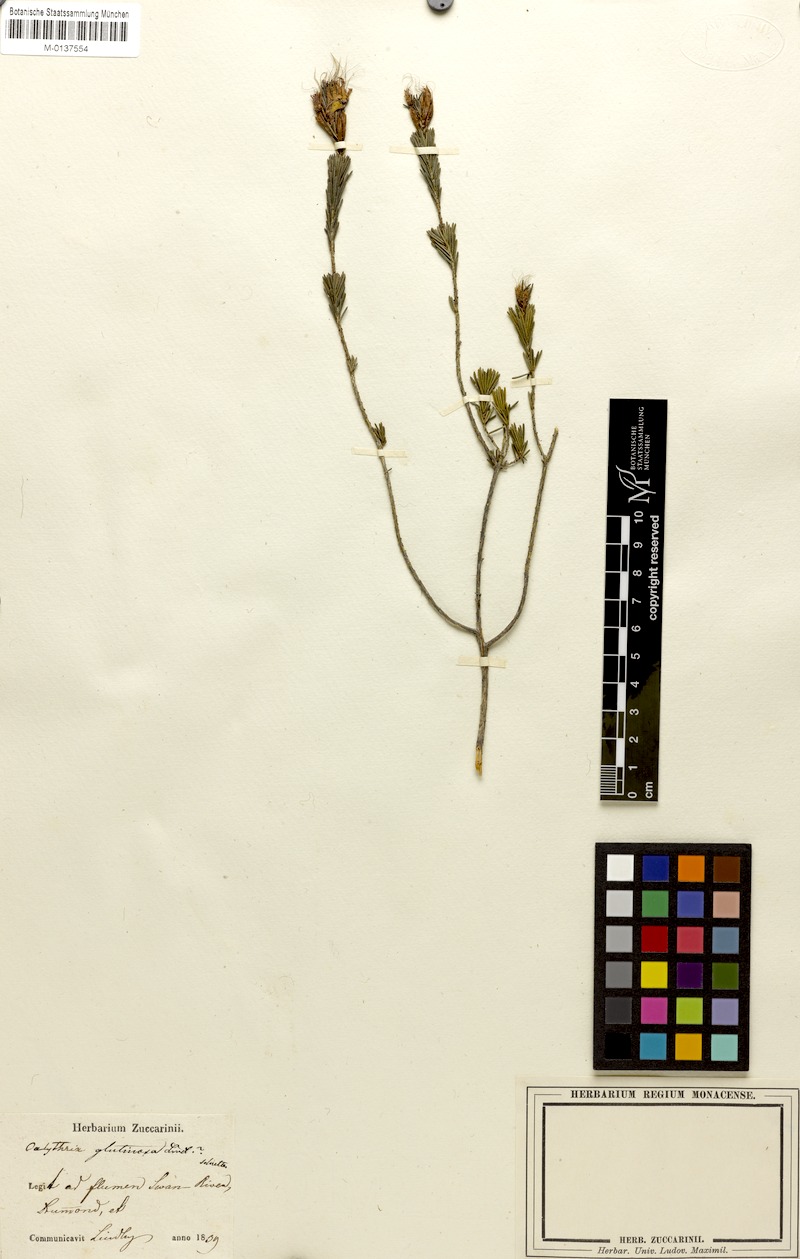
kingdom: Plantae
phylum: Tracheophyta
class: Magnoliopsida
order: Myrtales
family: Myrtaceae
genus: Calytrix
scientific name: Calytrix glutinosa
